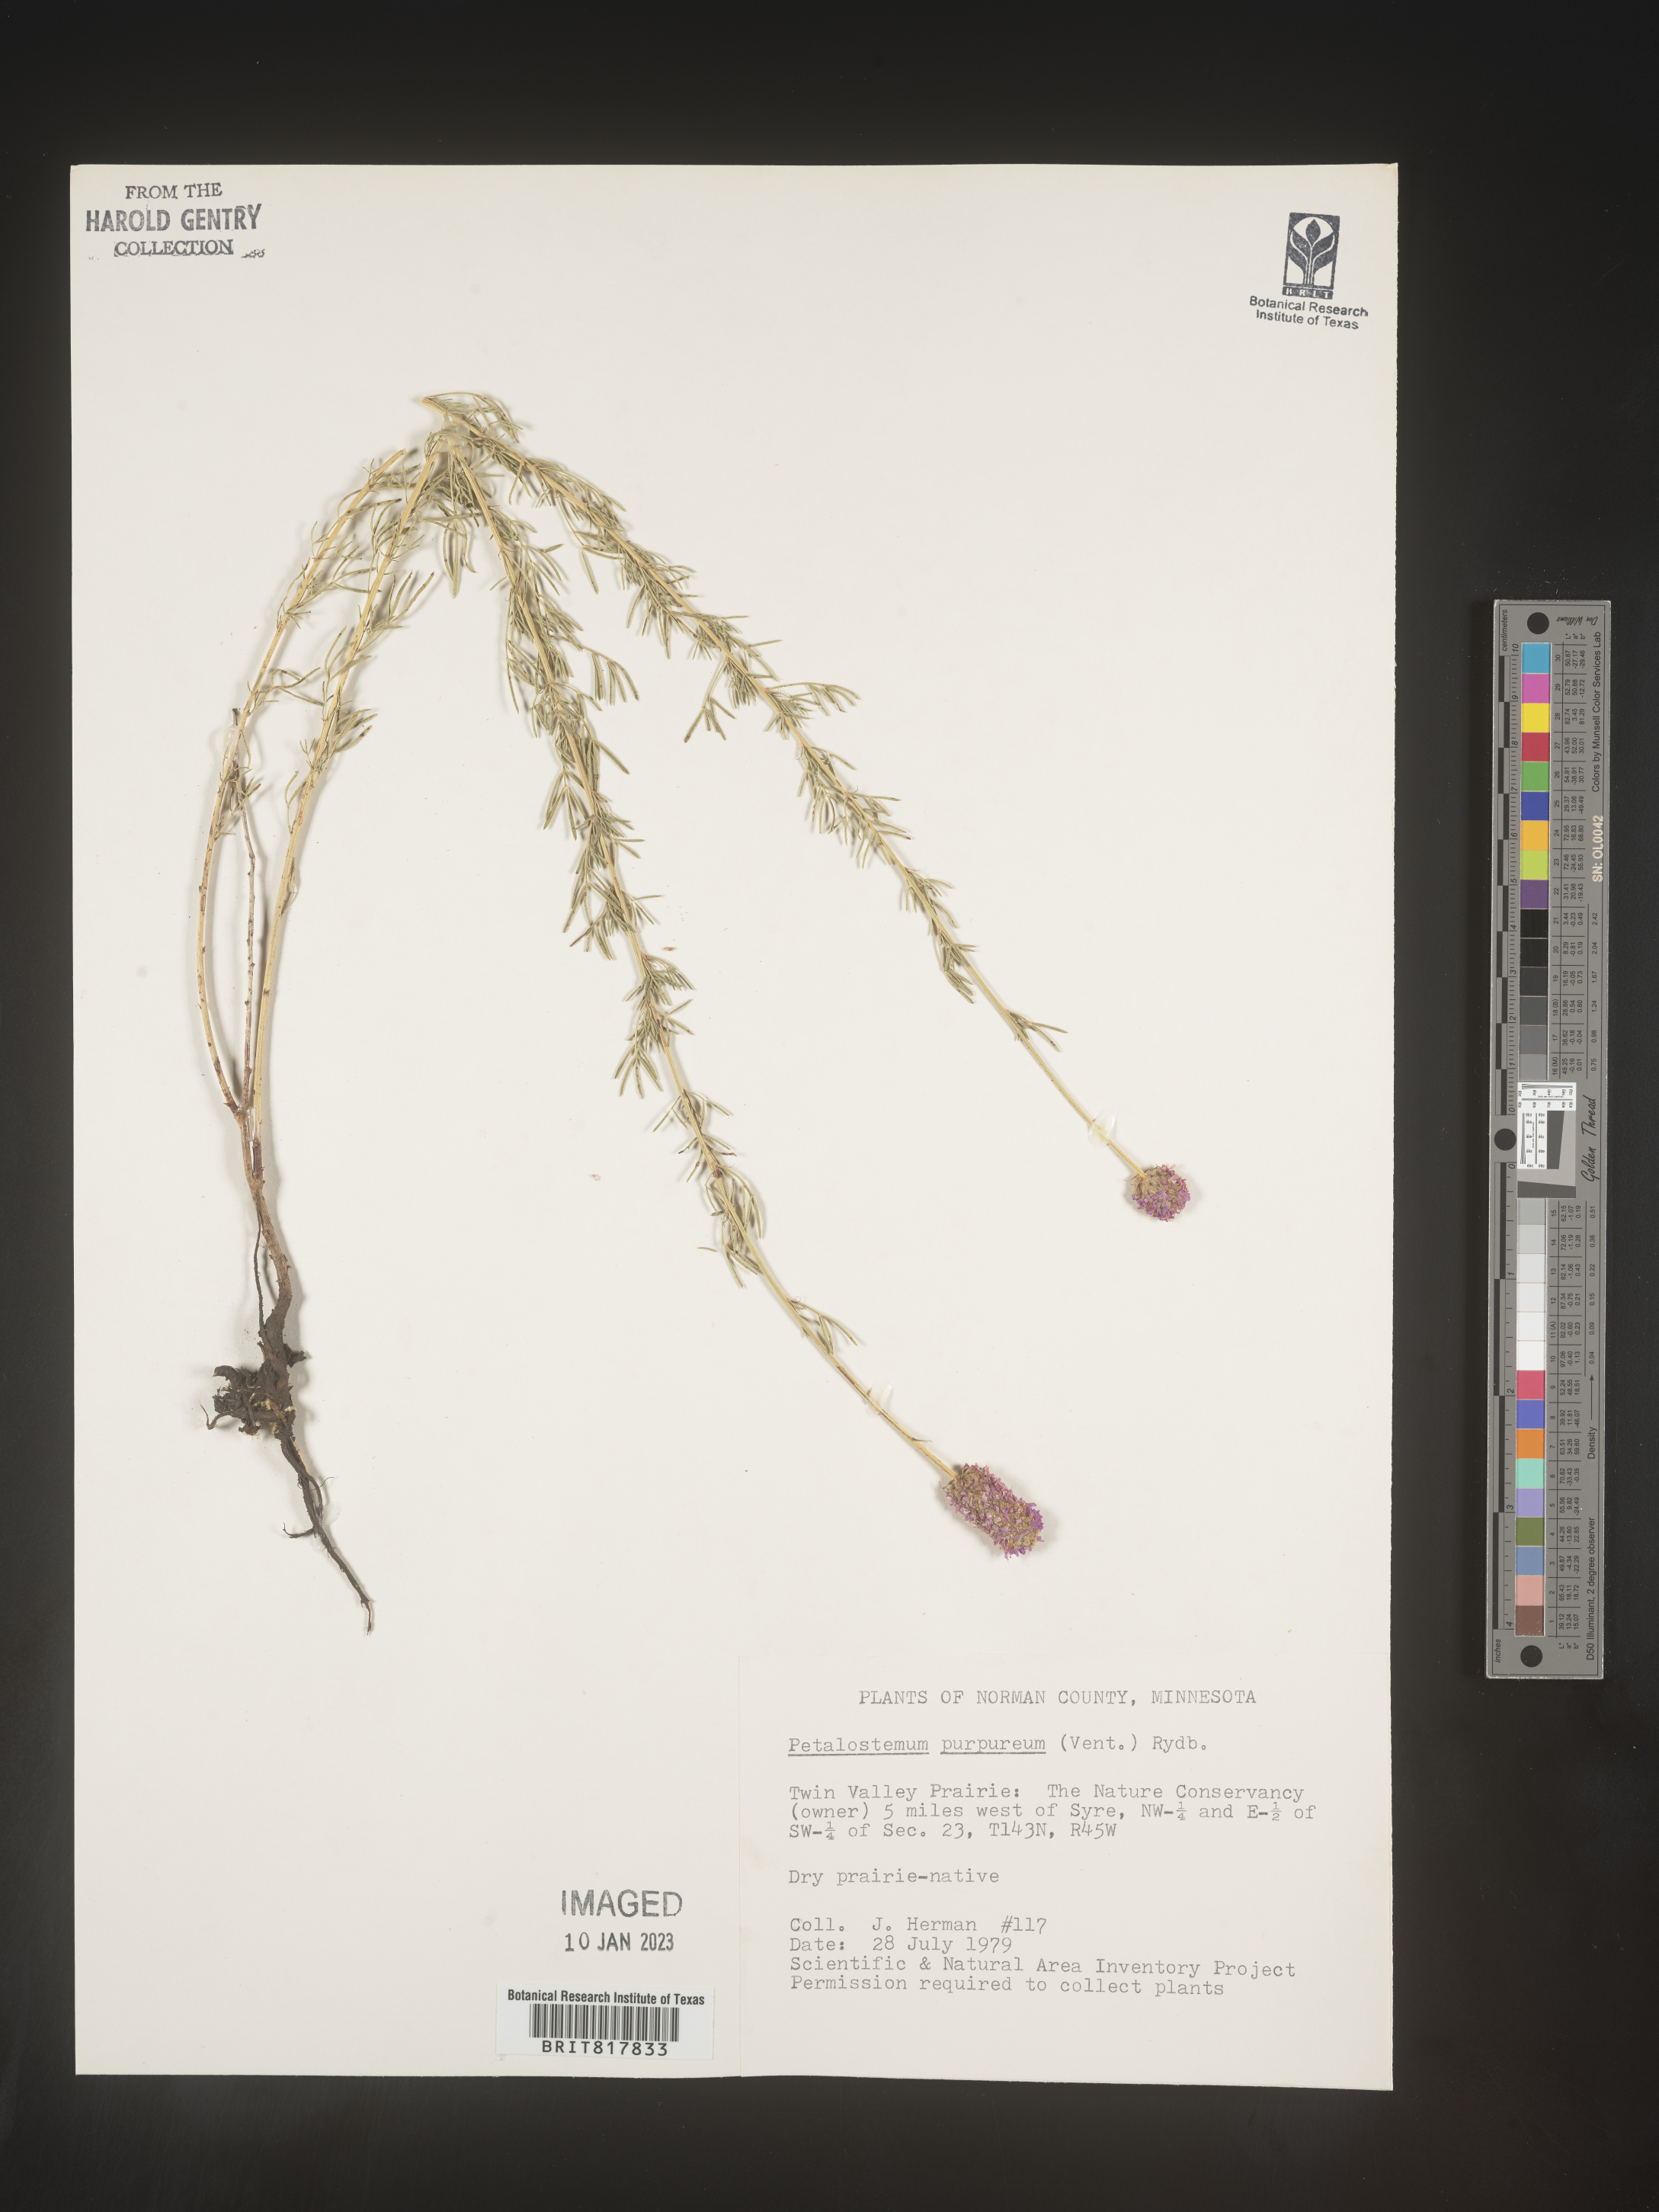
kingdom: Plantae
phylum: Tracheophyta
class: Magnoliopsida
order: Fabales
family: Fabaceae
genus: Dalea
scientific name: Dalea purpurea
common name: Purple prairie-clover
